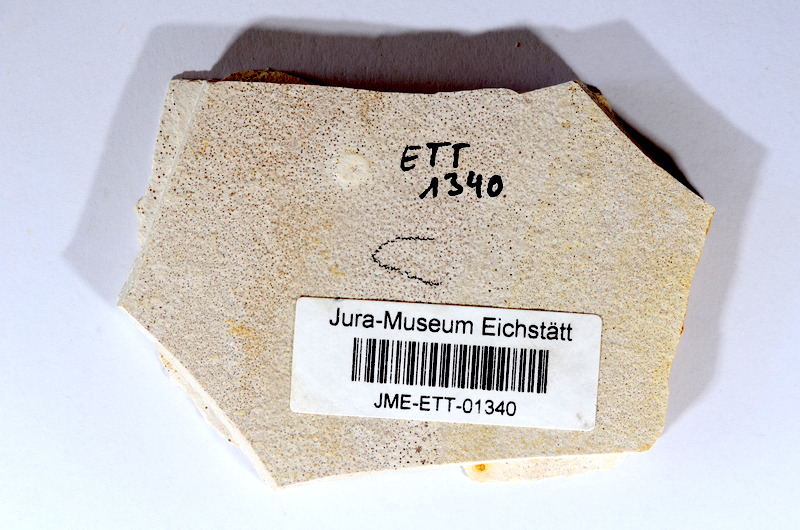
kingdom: Animalia
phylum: Chordata
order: Salmoniformes
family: Orthogonikleithridae
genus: Orthogonikleithrus
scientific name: Orthogonikleithrus hoelli
